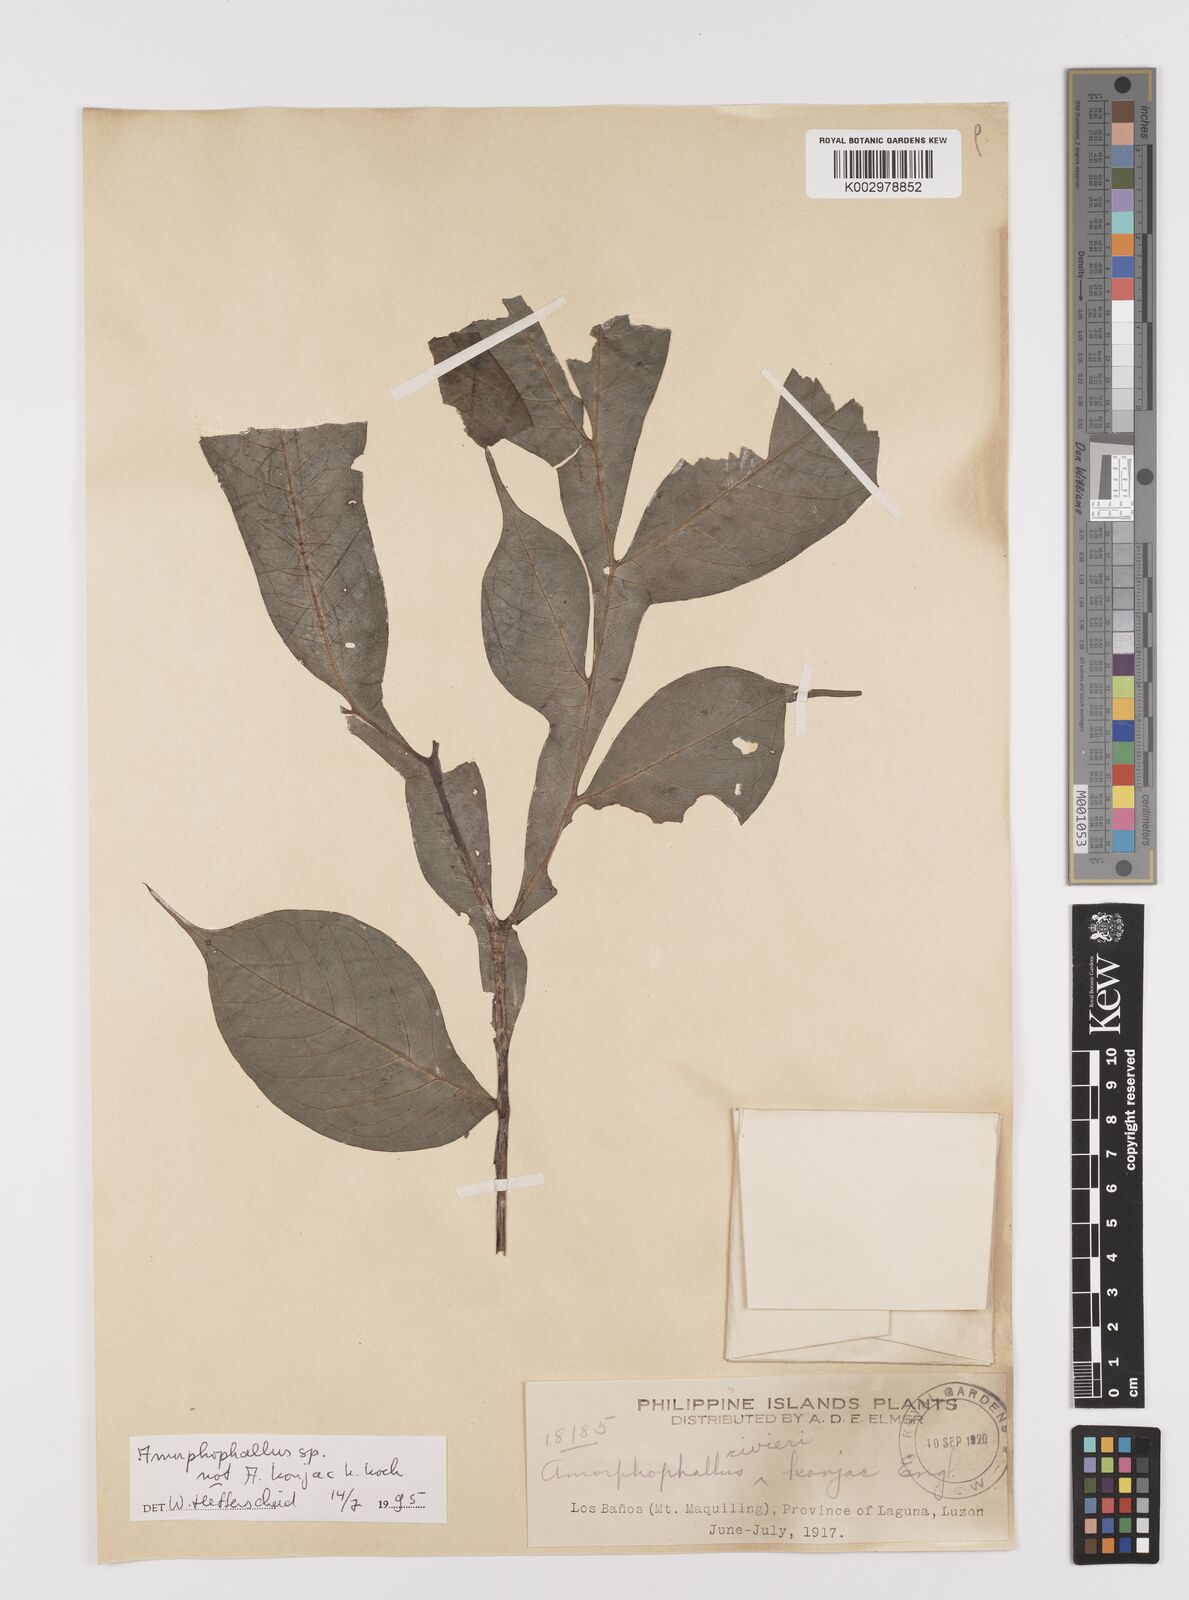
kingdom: Plantae
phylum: Tracheophyta
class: Liliopsida
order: Alismatales
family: Araceae
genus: Amorphophallus
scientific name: Amorphophallus
